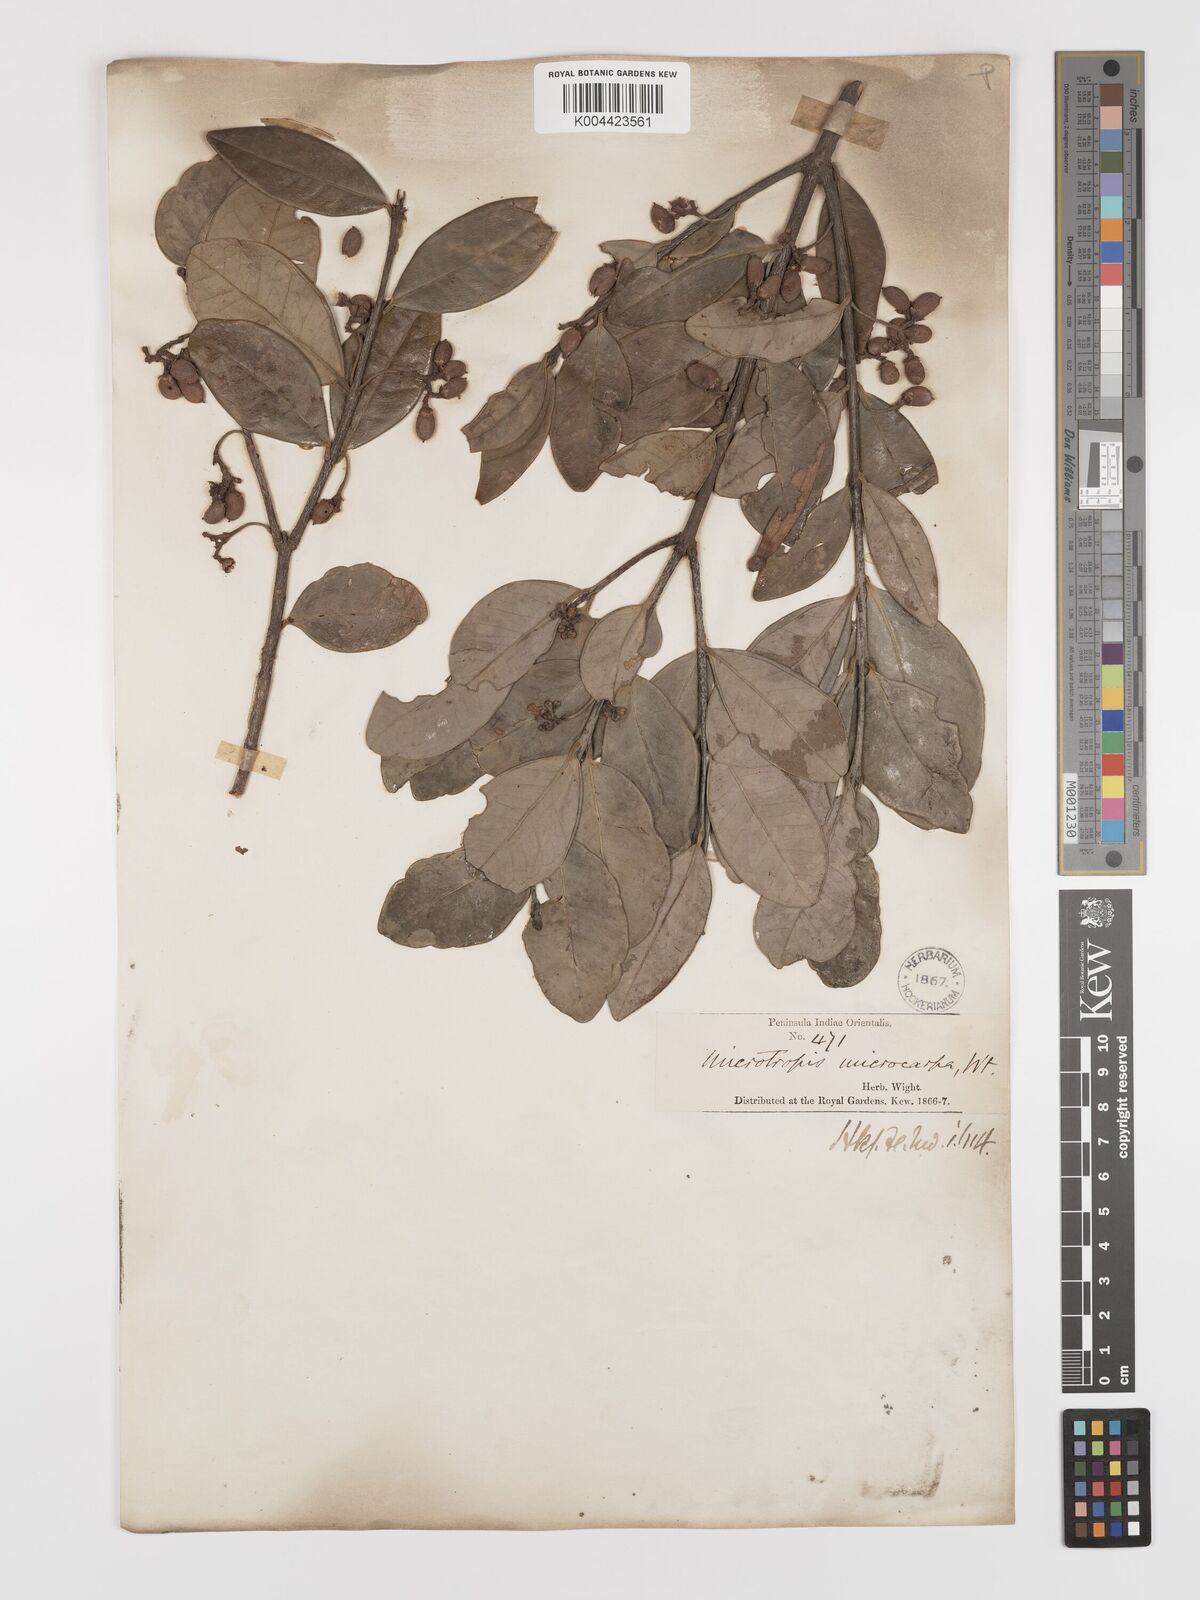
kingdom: Plantae
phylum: Tracheophyta
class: Magnoliopsida
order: Celastrales
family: Celastraceae
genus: Microtropis
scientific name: Microtropis microcarpa
